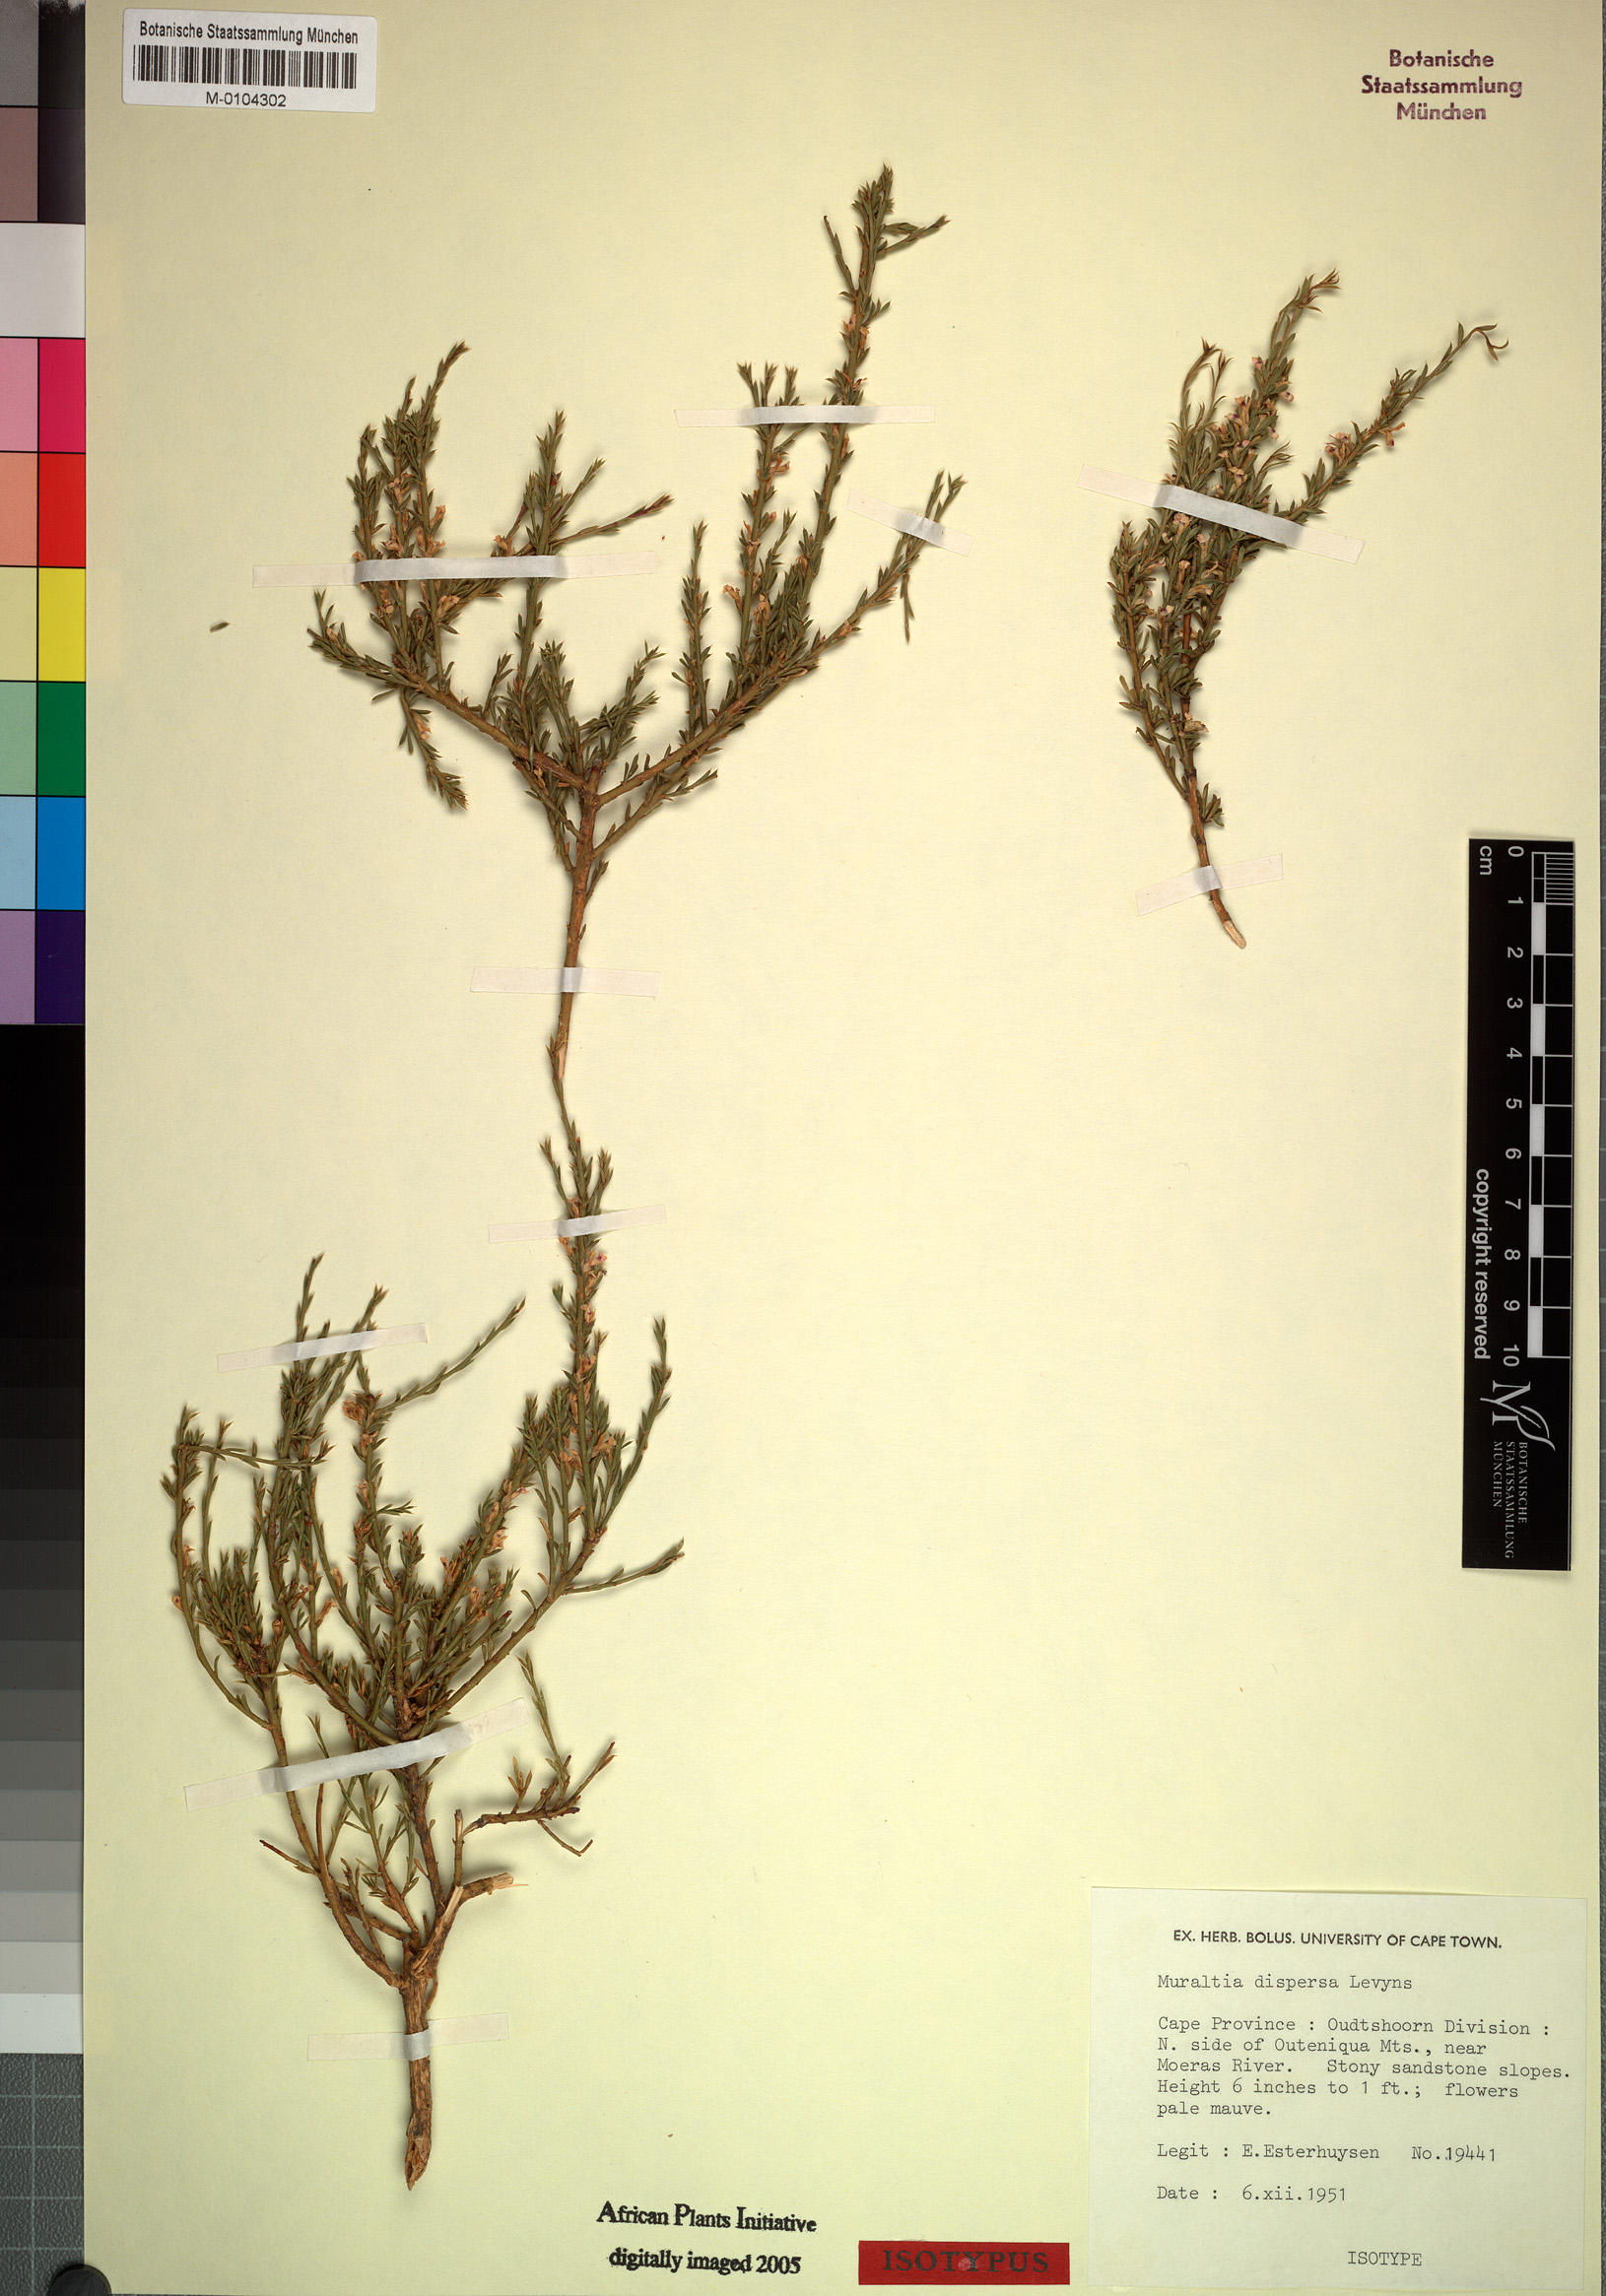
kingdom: Plantae
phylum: Tracheophyta
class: Magnoliopsida
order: Fabales
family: Polygalaceae
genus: Muraltia
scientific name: Muraltia dispersa
